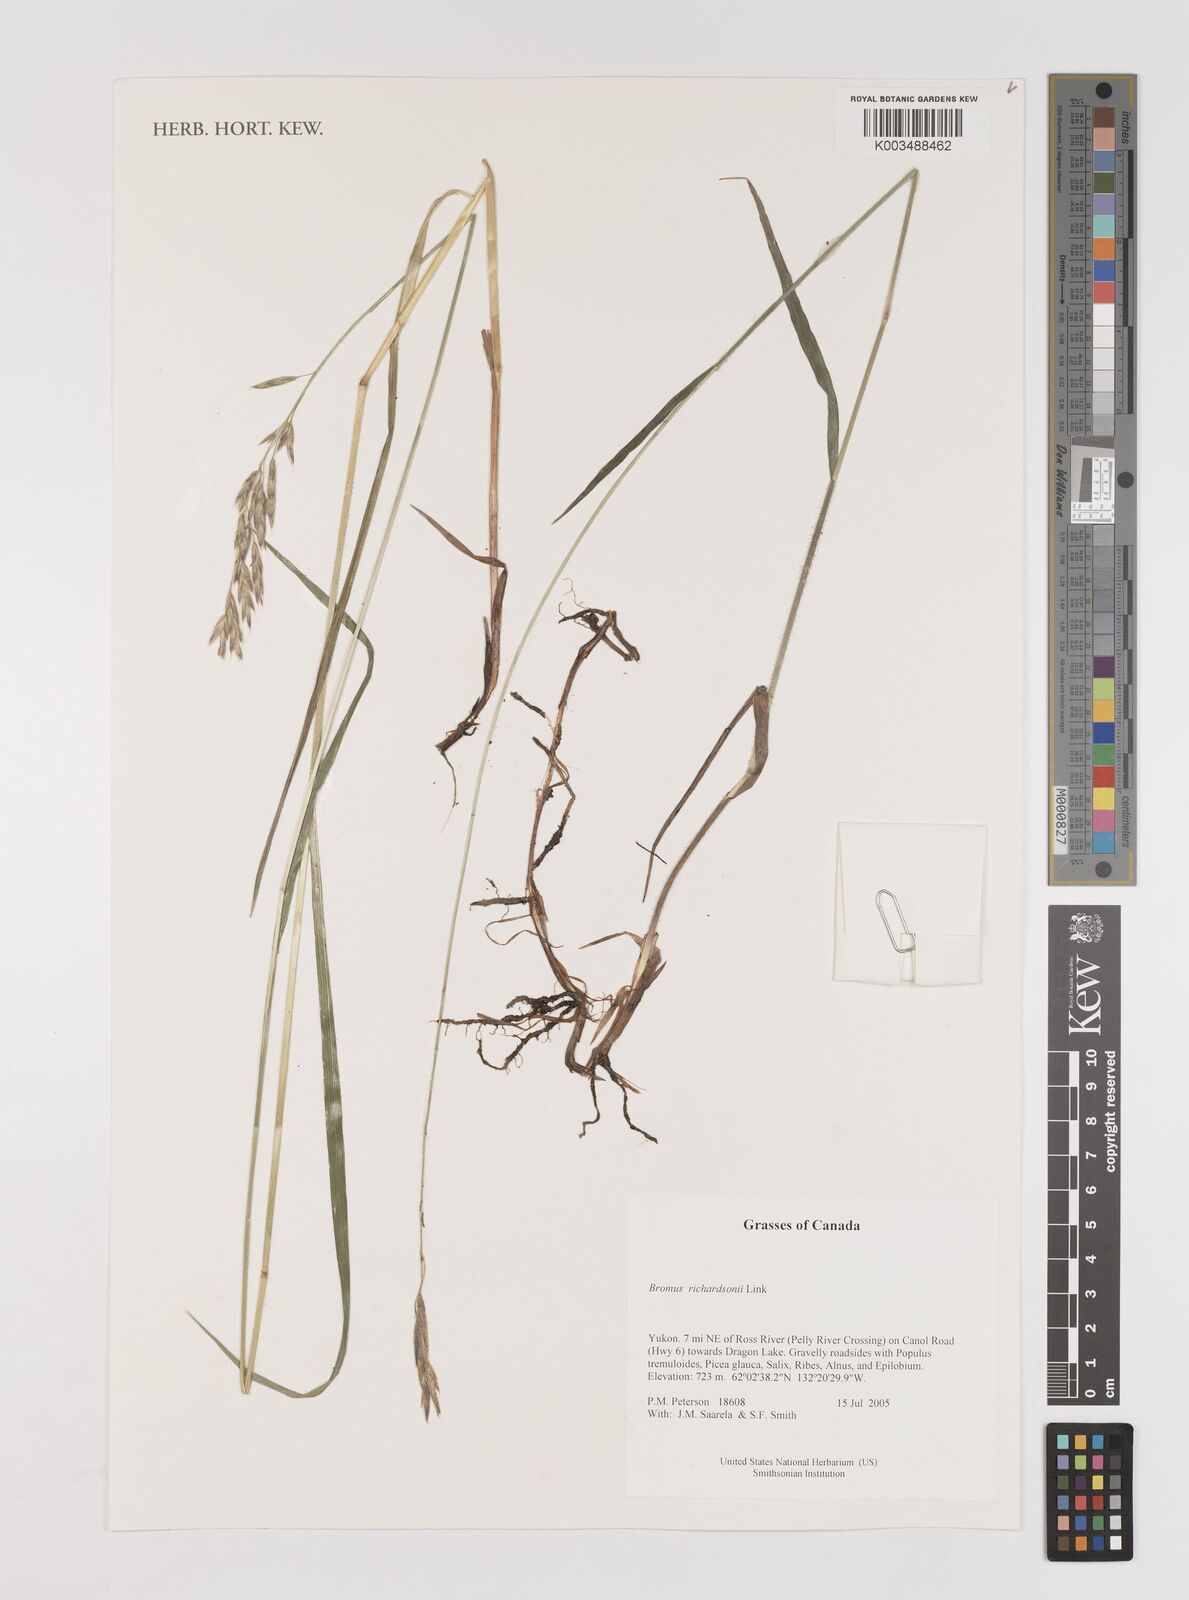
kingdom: Plantae
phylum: Tracheophyta
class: Liliopsida
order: Poales
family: Poaceae
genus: Bromus
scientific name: Bromus richardsonii
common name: Richardson's brome
